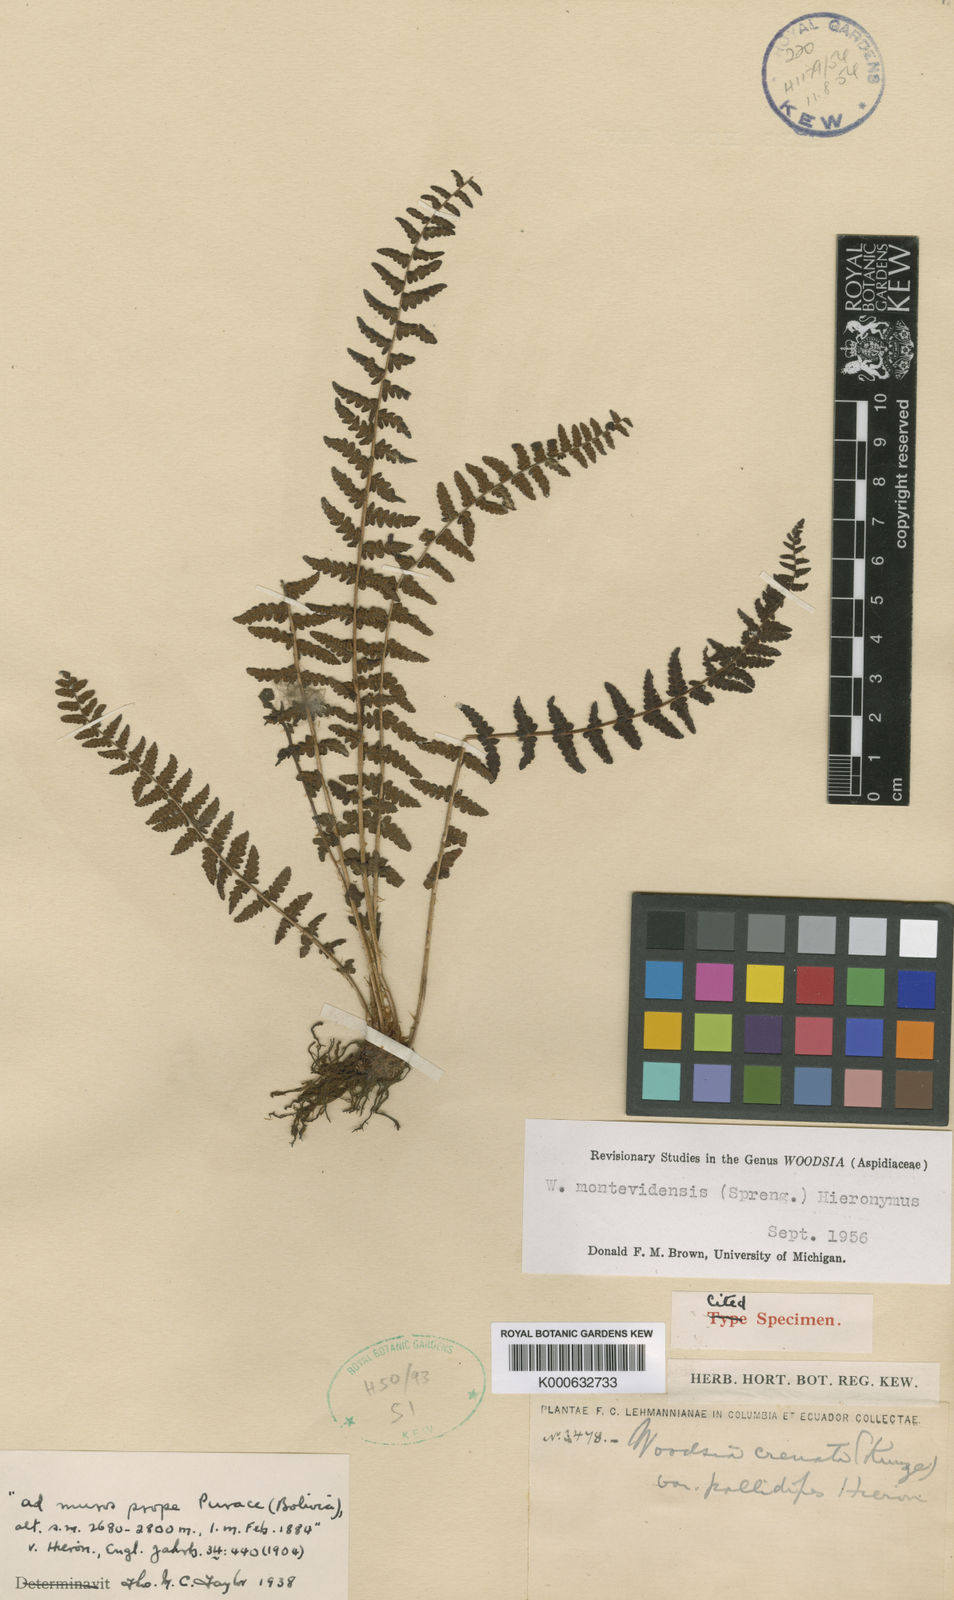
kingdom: Plantae
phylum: Tracheophyta
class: Polypodiopsida
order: Polypodiales
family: Woodsiaceae
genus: Physematium
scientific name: Physematium montevidense
